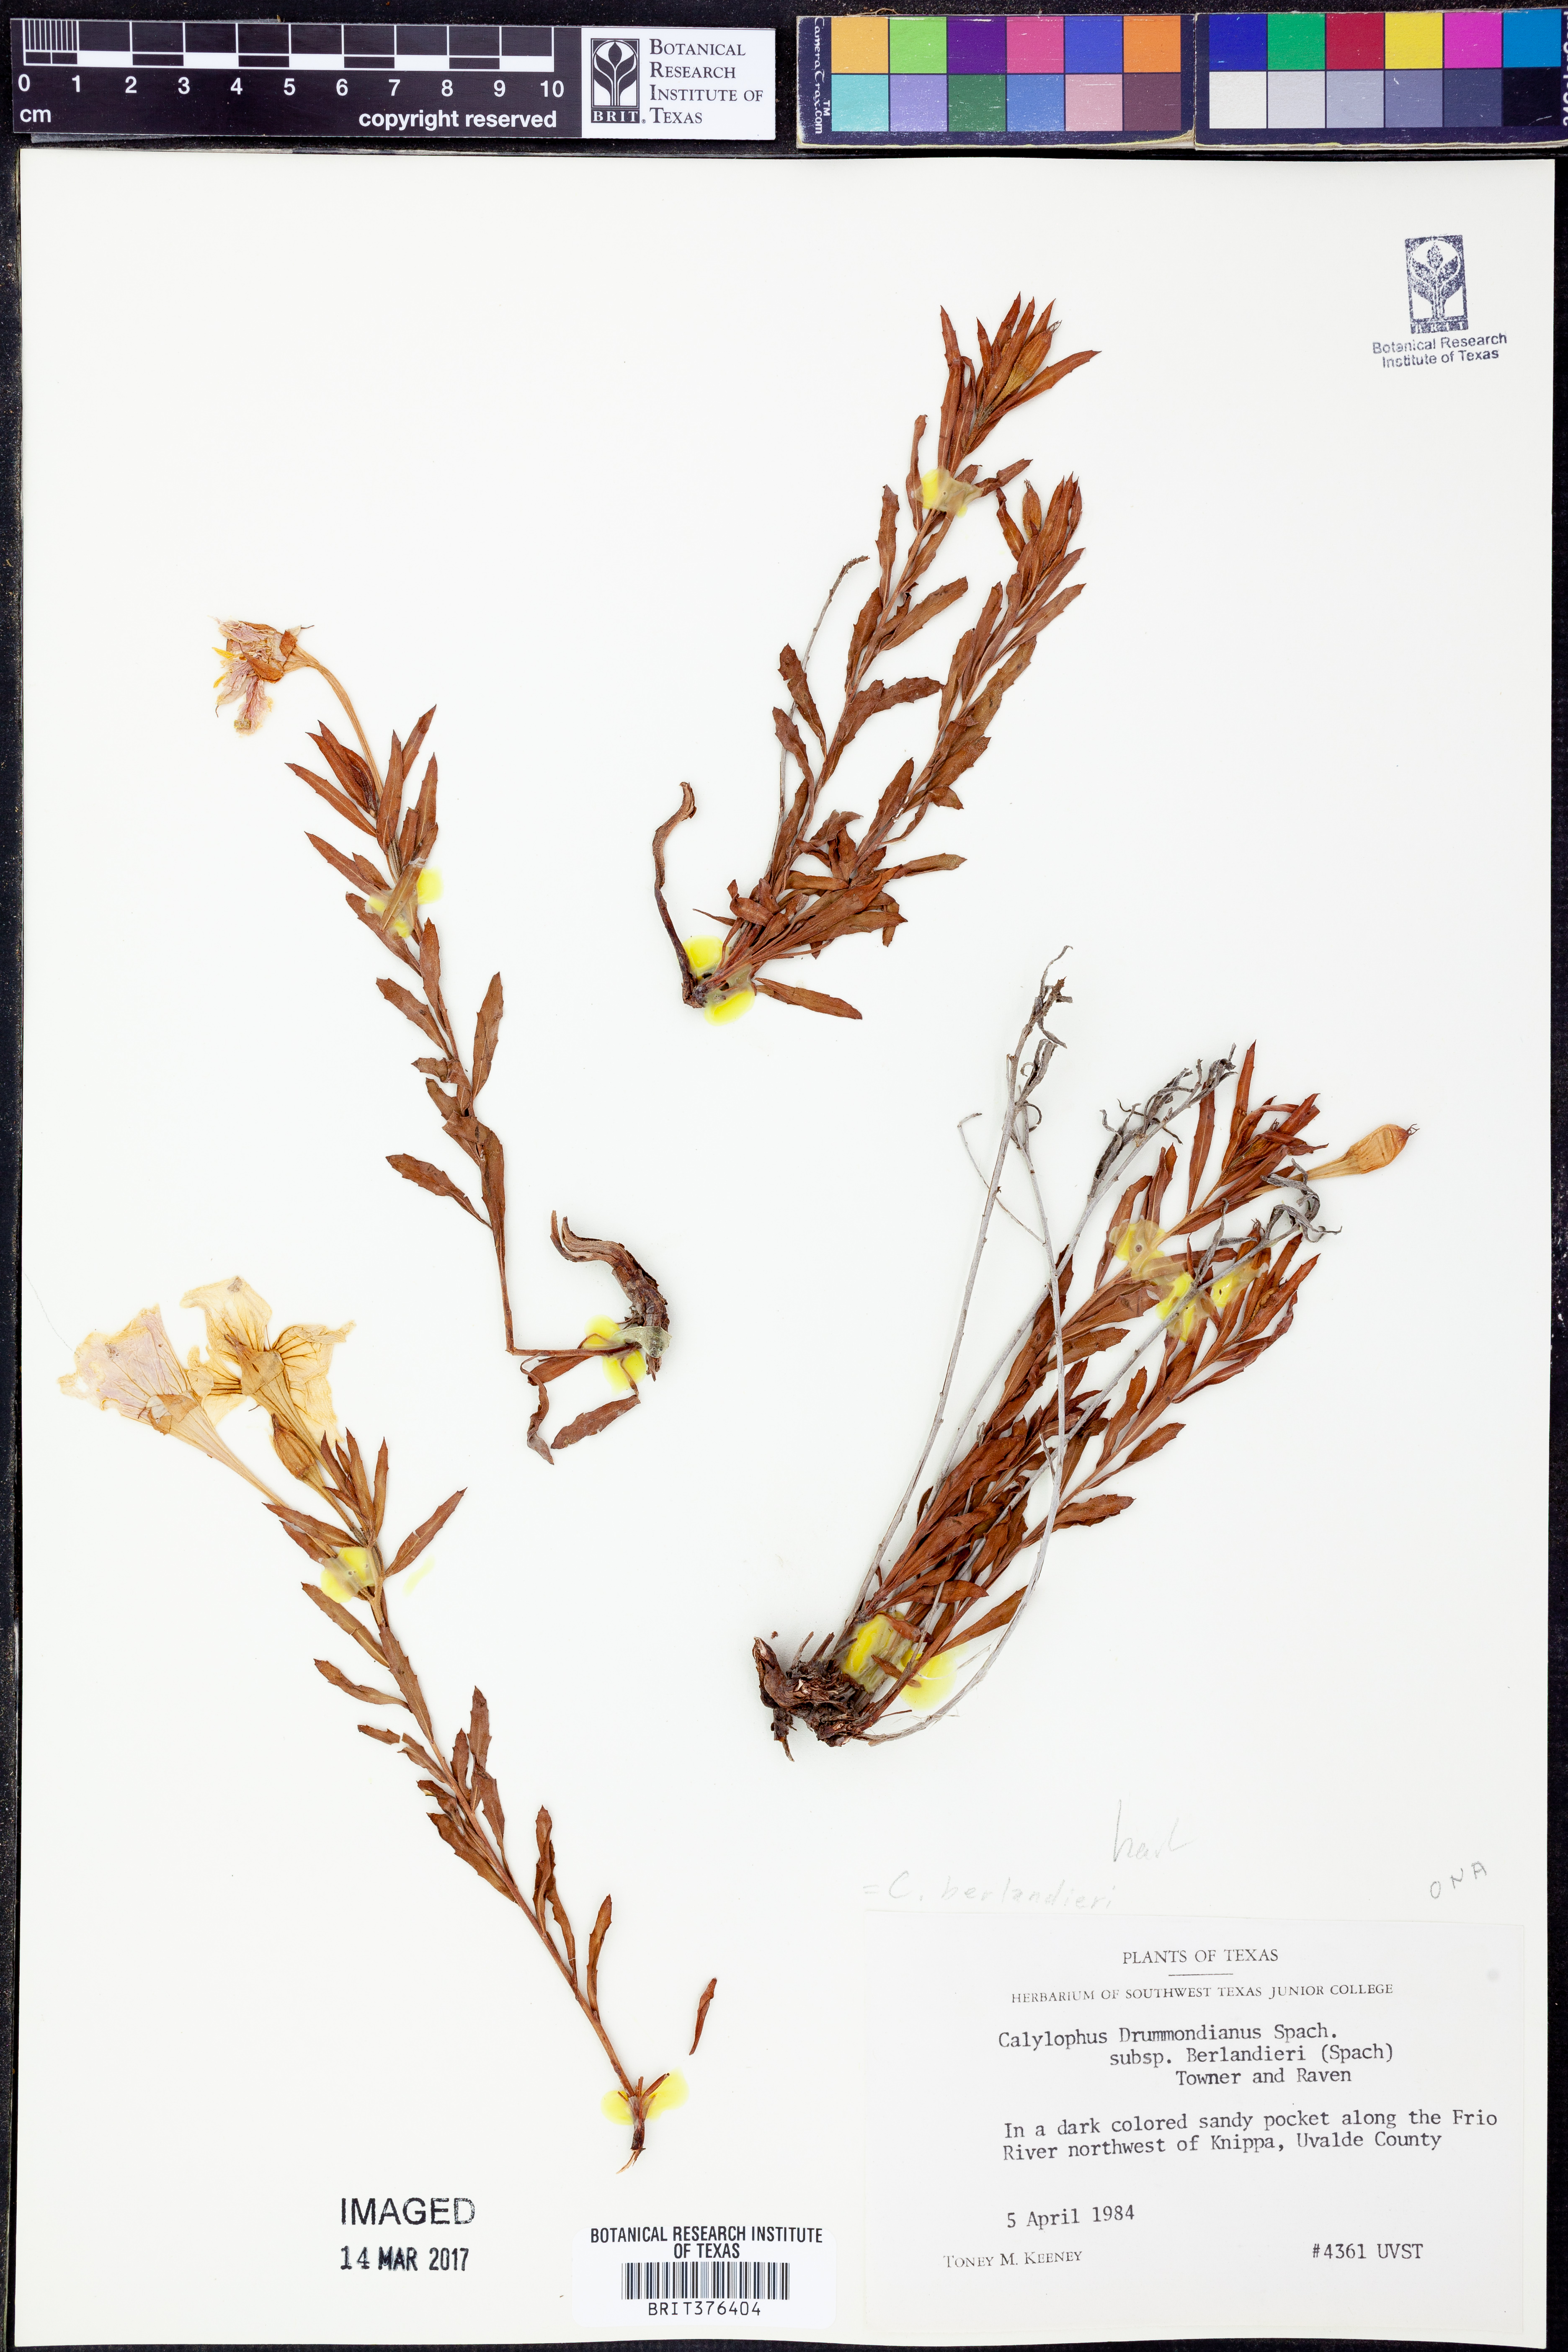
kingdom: Plantae
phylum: Tracheophyta
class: Magnoliopsida
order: Myrtales
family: Onagraceae
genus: Oenothera
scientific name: Oenothera capillifolia
